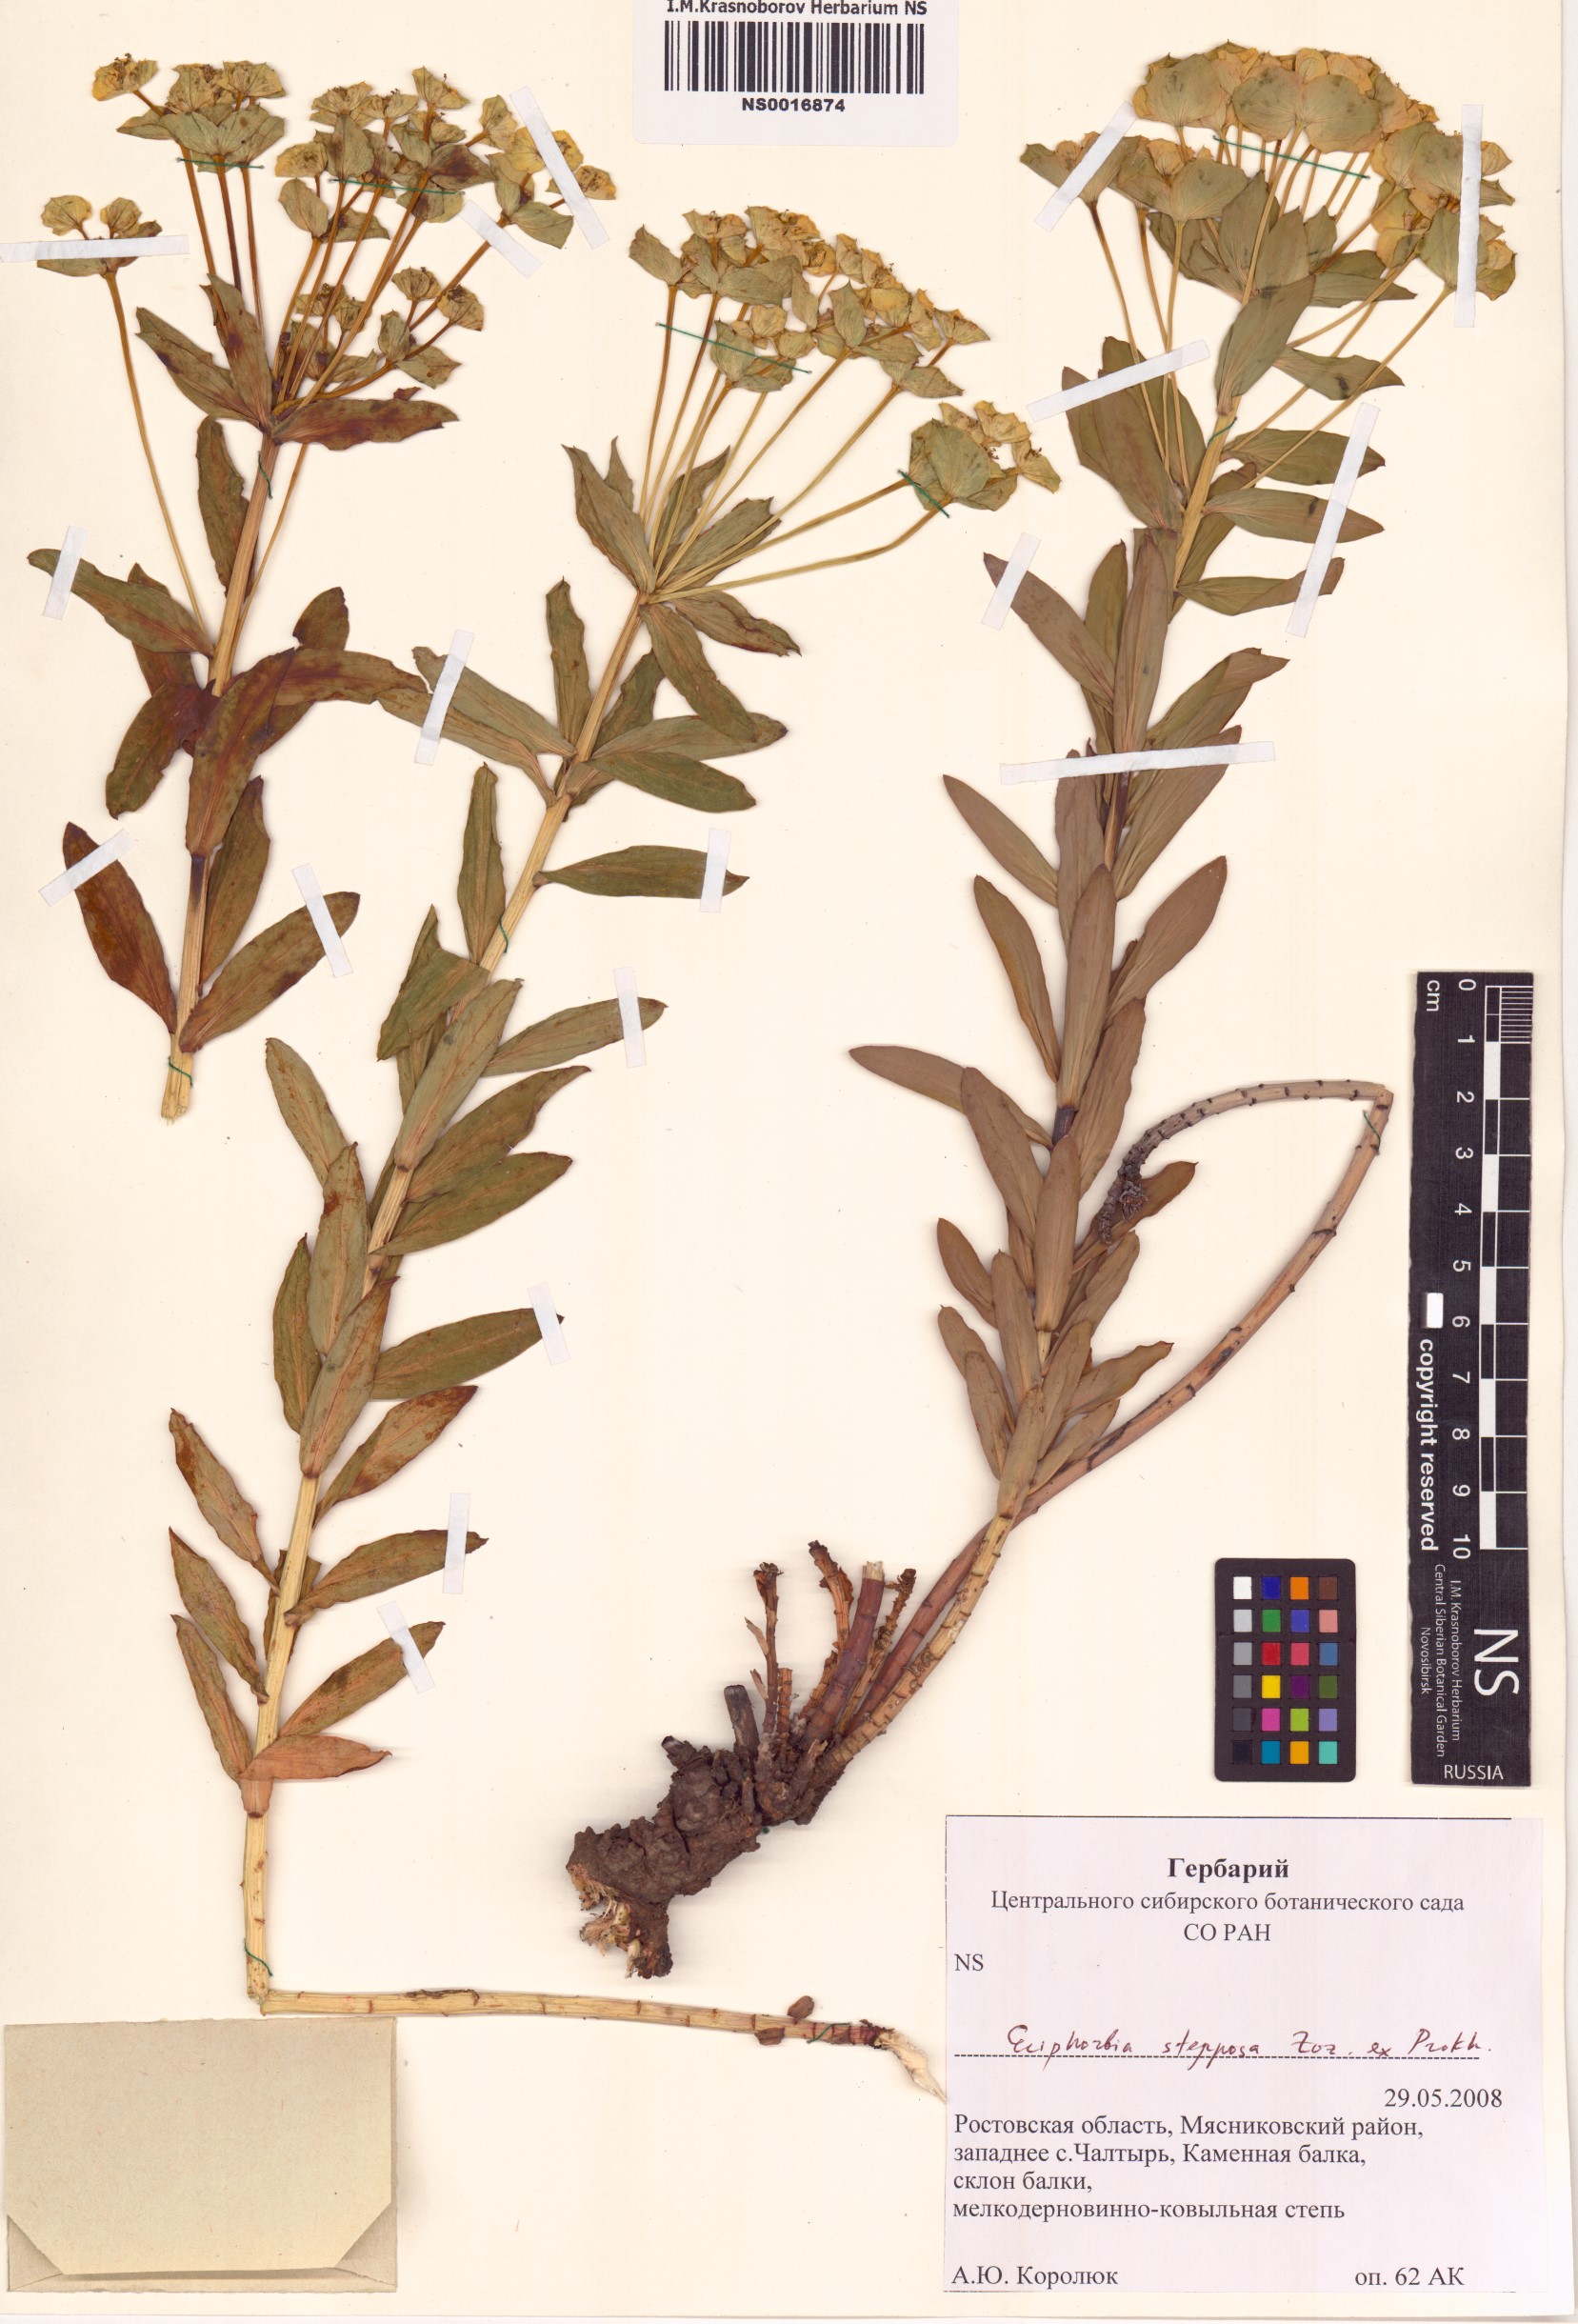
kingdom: Plantae
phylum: Tracheophyta
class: Magnoliopsida
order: Malpighiales
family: Euphorbiaceae
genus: Euphorbia
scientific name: Euphorbia stepposa
